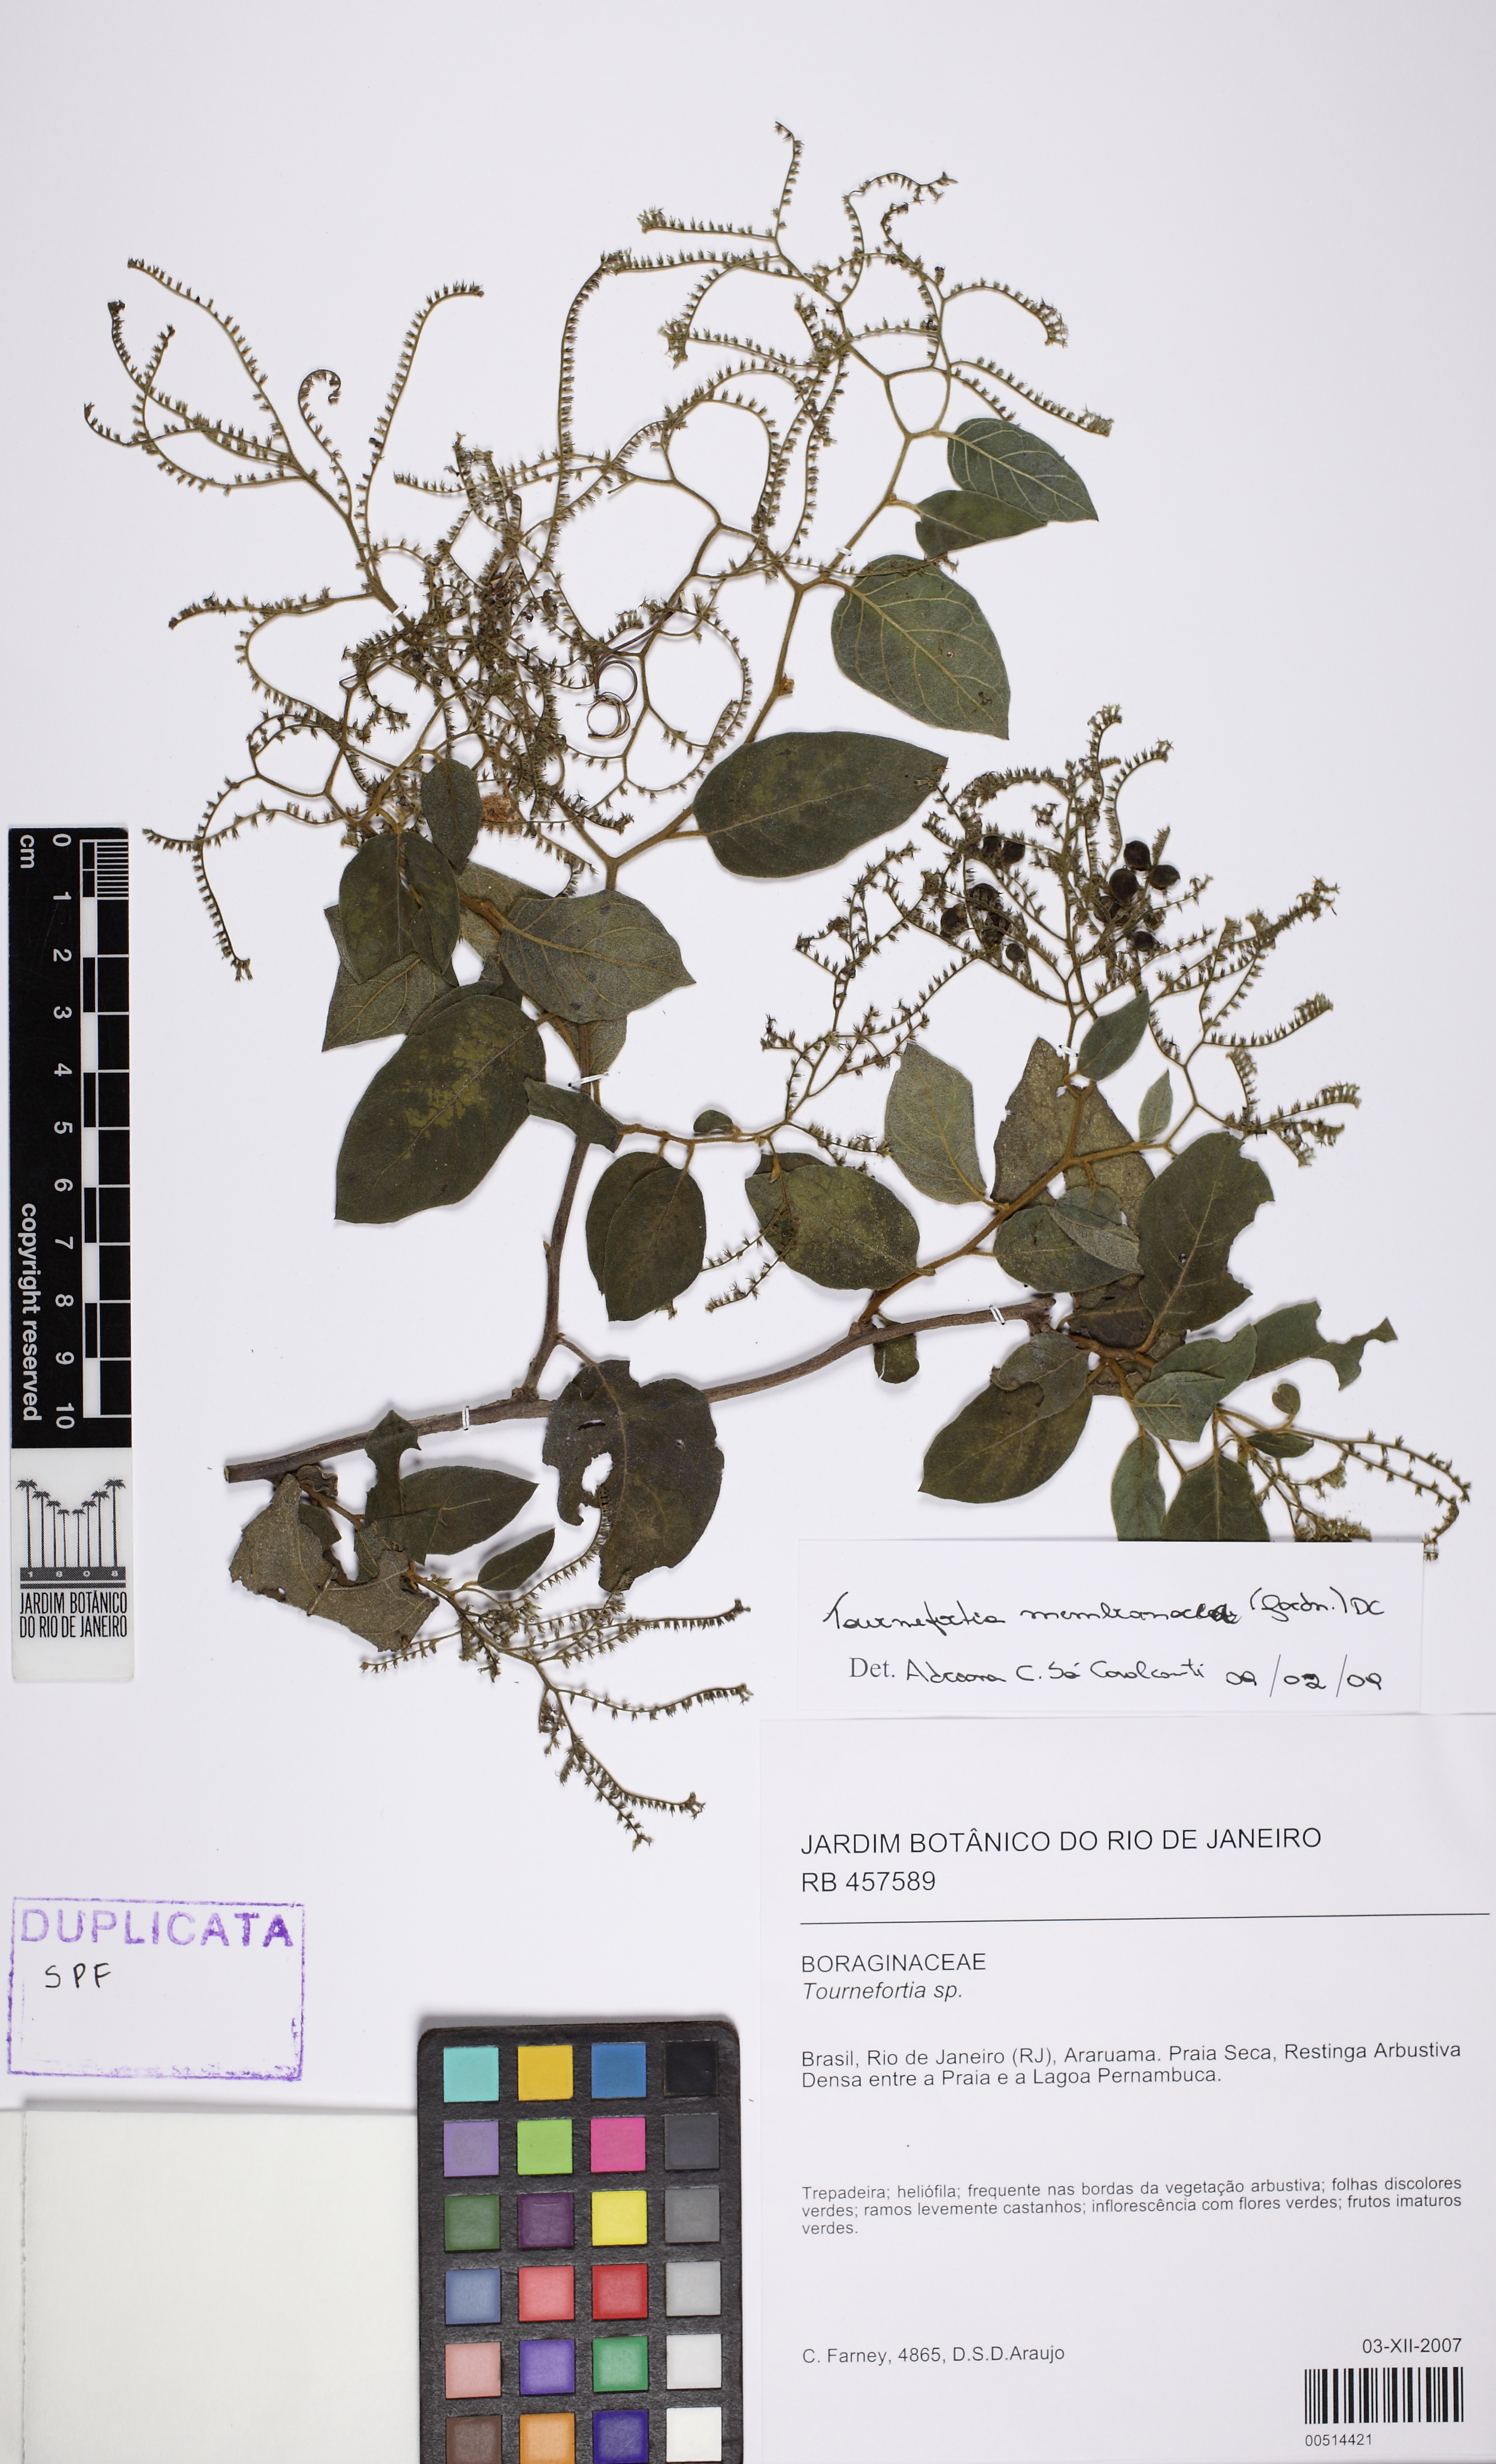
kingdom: Plantae
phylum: Tracheophyta
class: Magnoliopsida
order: Boraginales
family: Heliotropiaceae
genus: Myriopus
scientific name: Myriopus membranaceus
